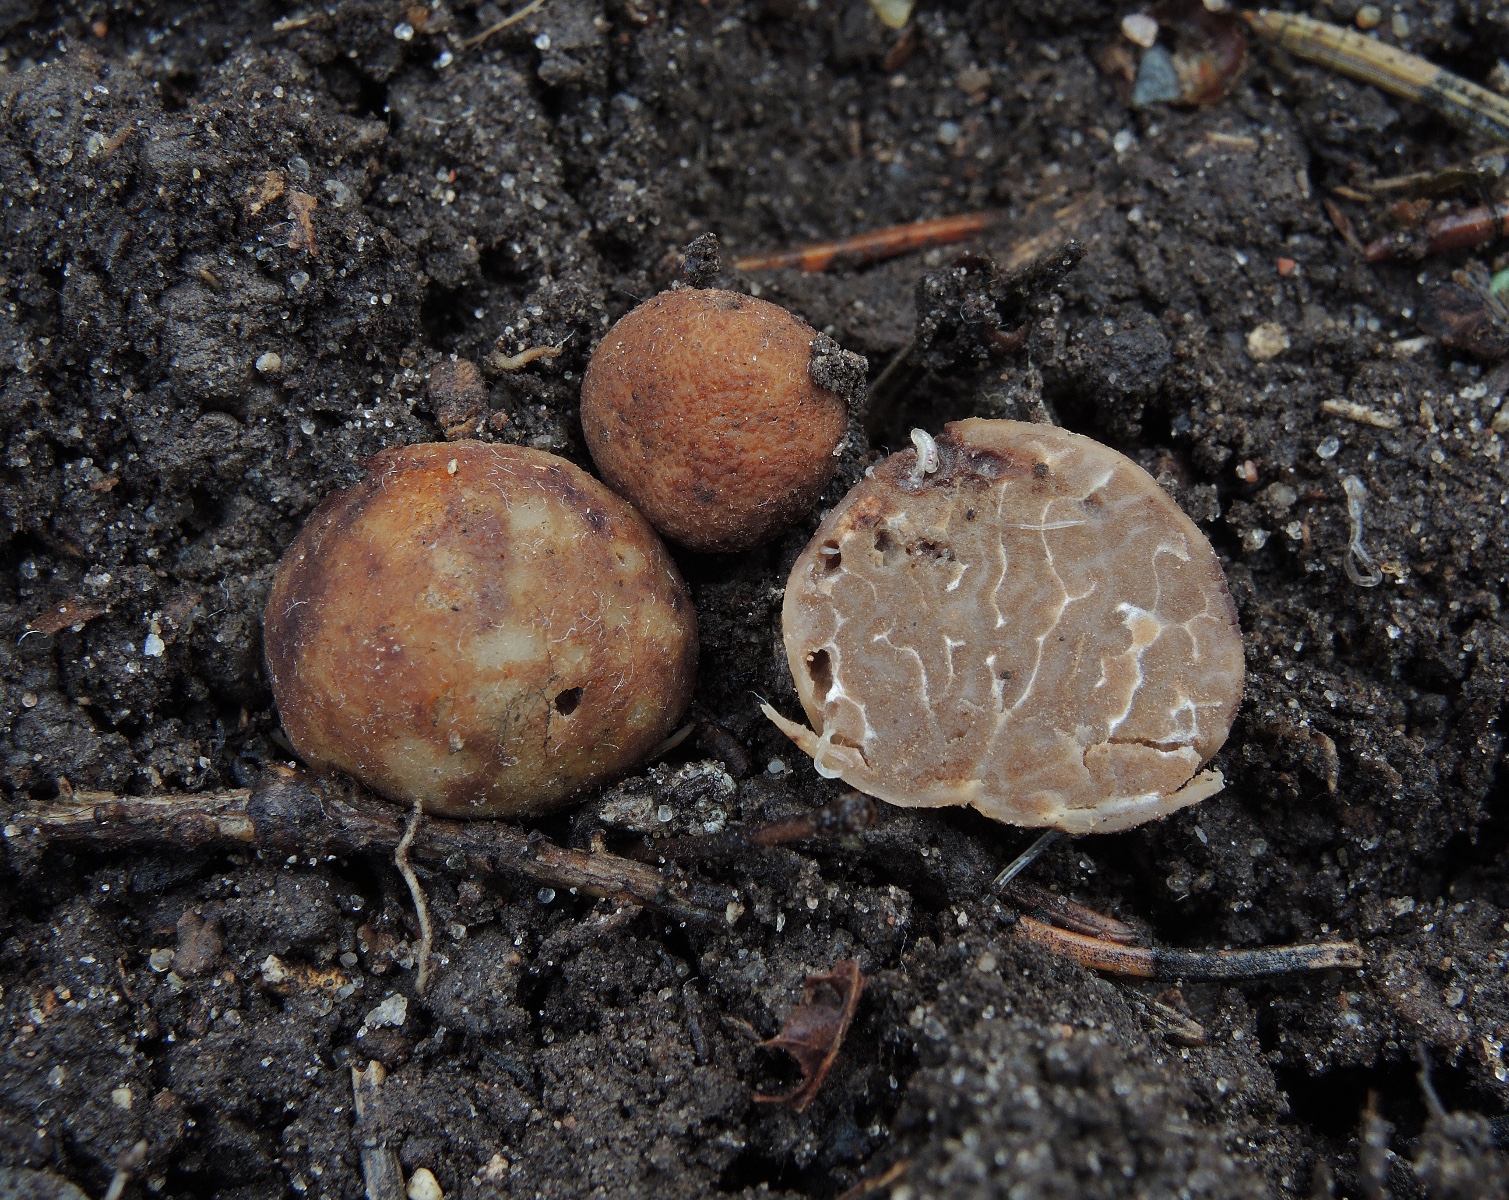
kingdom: Fungi
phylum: Ascomycota
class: Pezizomycetes
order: Pezizales
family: Tuberaceae
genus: Tuber
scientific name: Tuber rufum
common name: rødbrun trøffel
